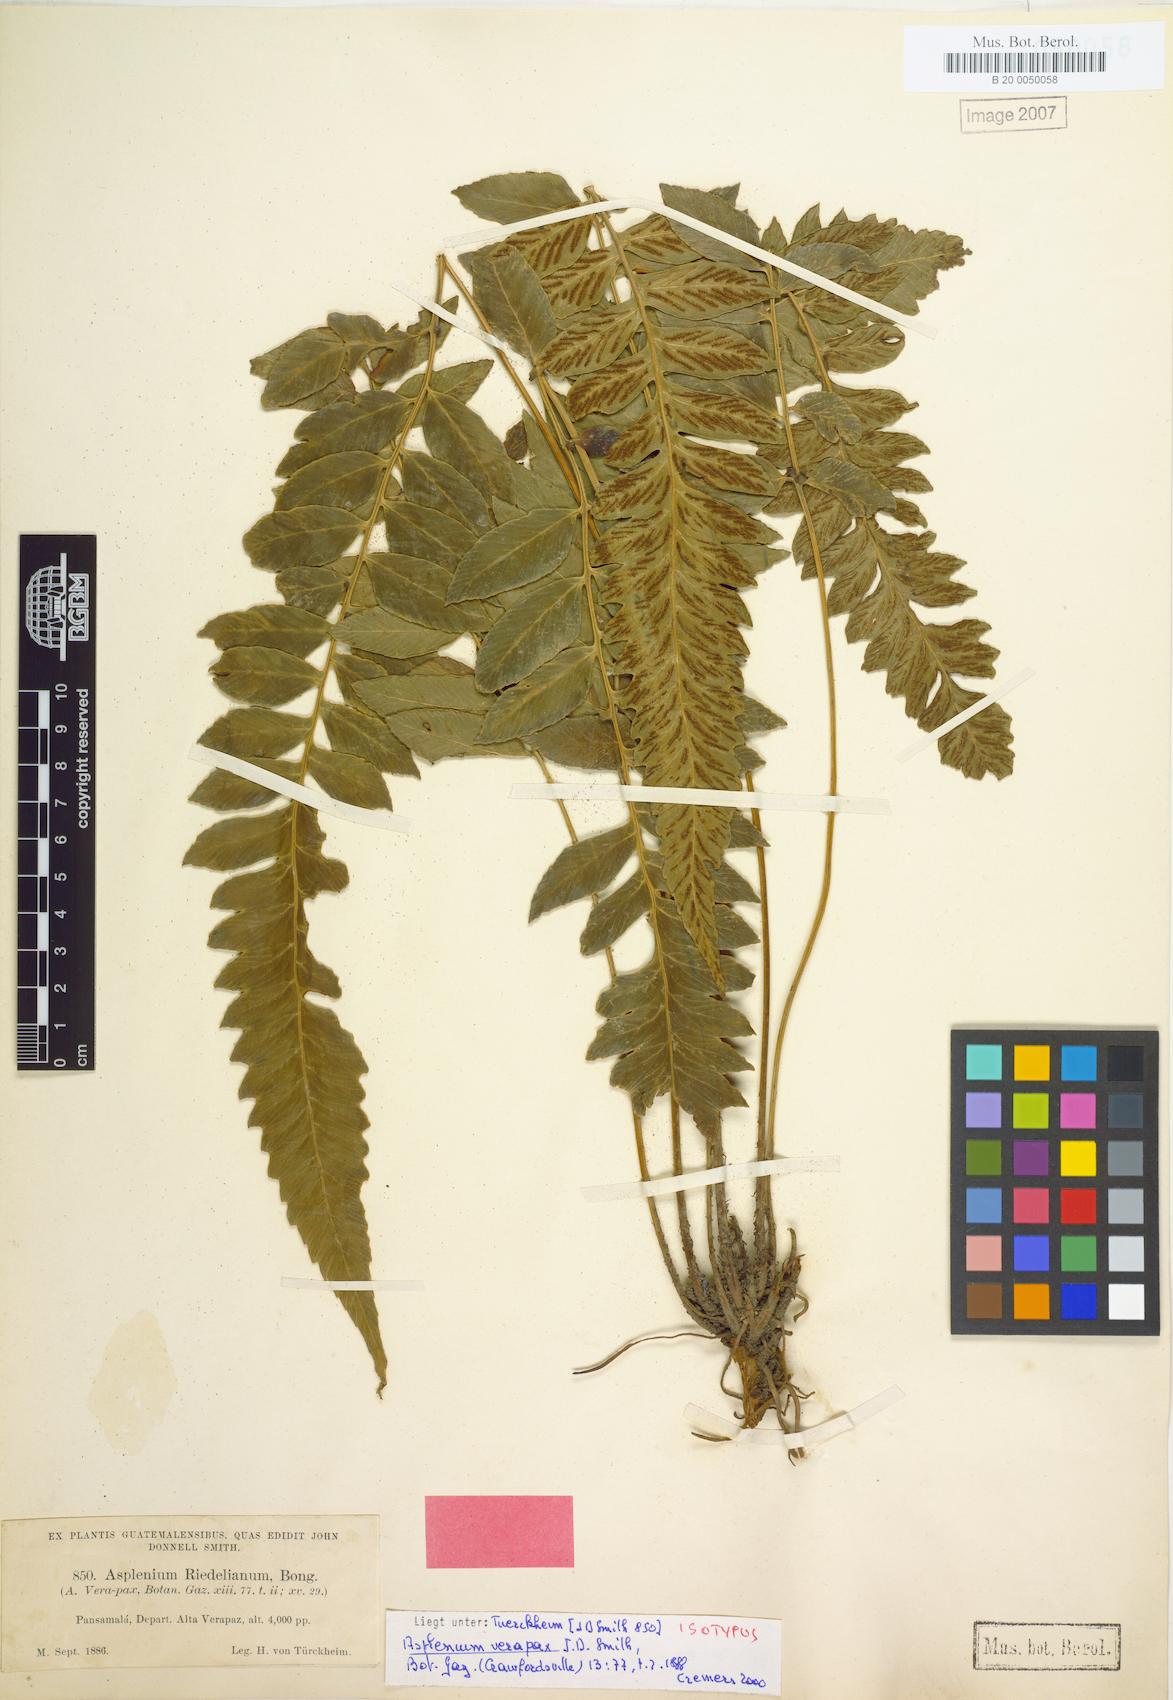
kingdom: Plantae
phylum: Tracheophyta
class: Polypodiopsida
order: Polypodiales
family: Athyriaceae
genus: Diplazium
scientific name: Diplazium verapax
